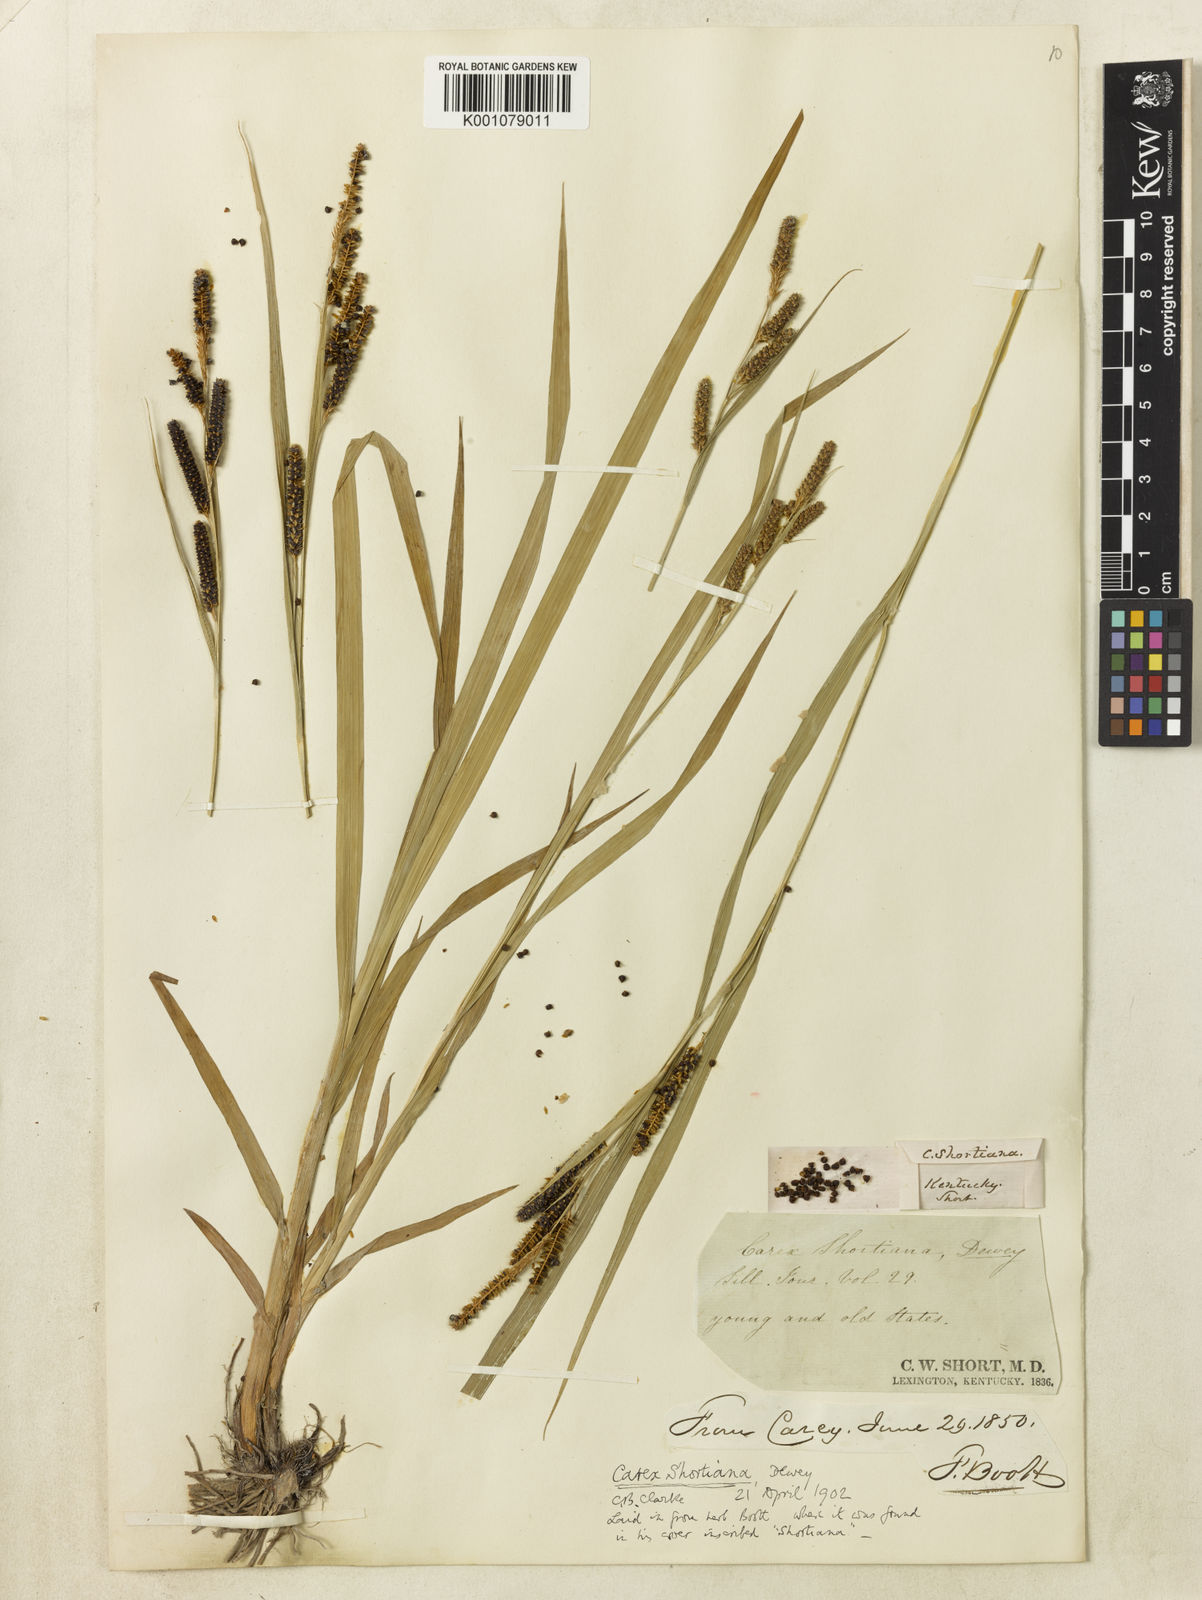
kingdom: Plantae
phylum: Tracheophyta
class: Liliopsida
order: Poales
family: Cyperaceae
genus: Carex
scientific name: Carex shortiana
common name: Short's sedge
